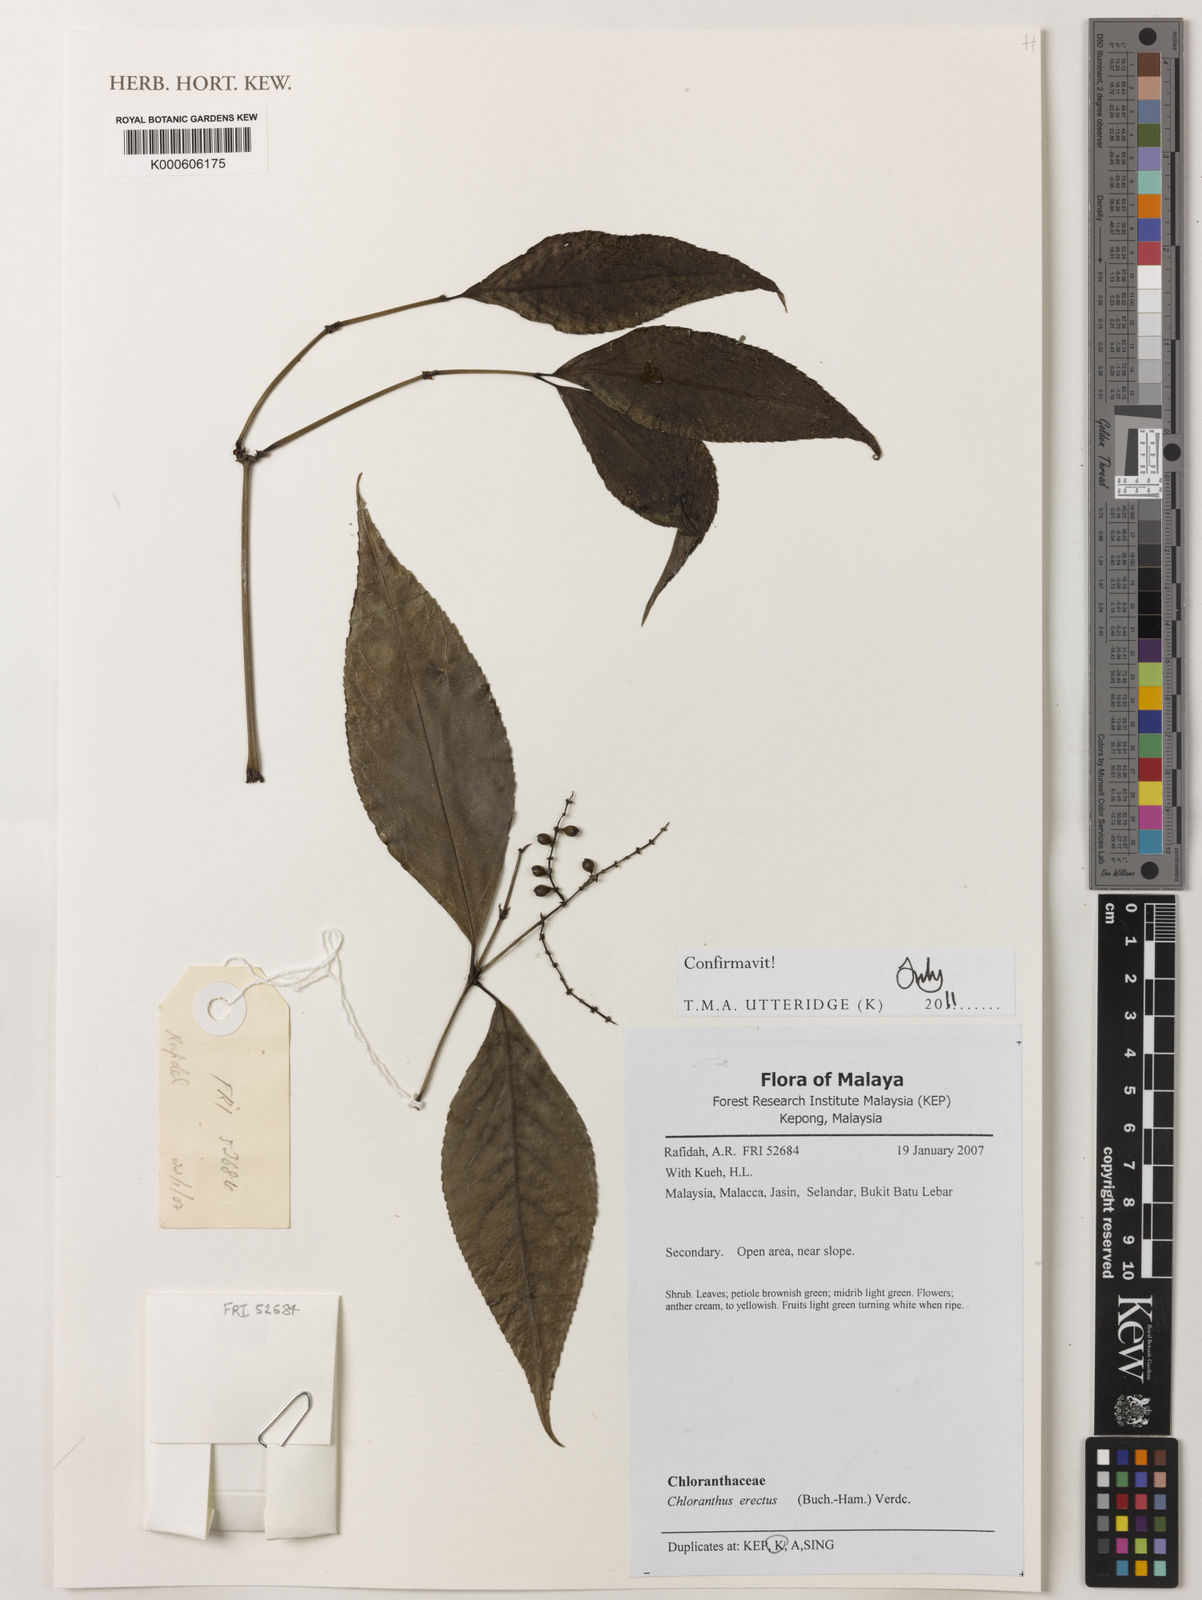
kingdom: Plantae
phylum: Tracheophyta
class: Magnoliopsida
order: Chloranthales
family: Chloranthaceae
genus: Chloranthus
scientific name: Chloranthus
